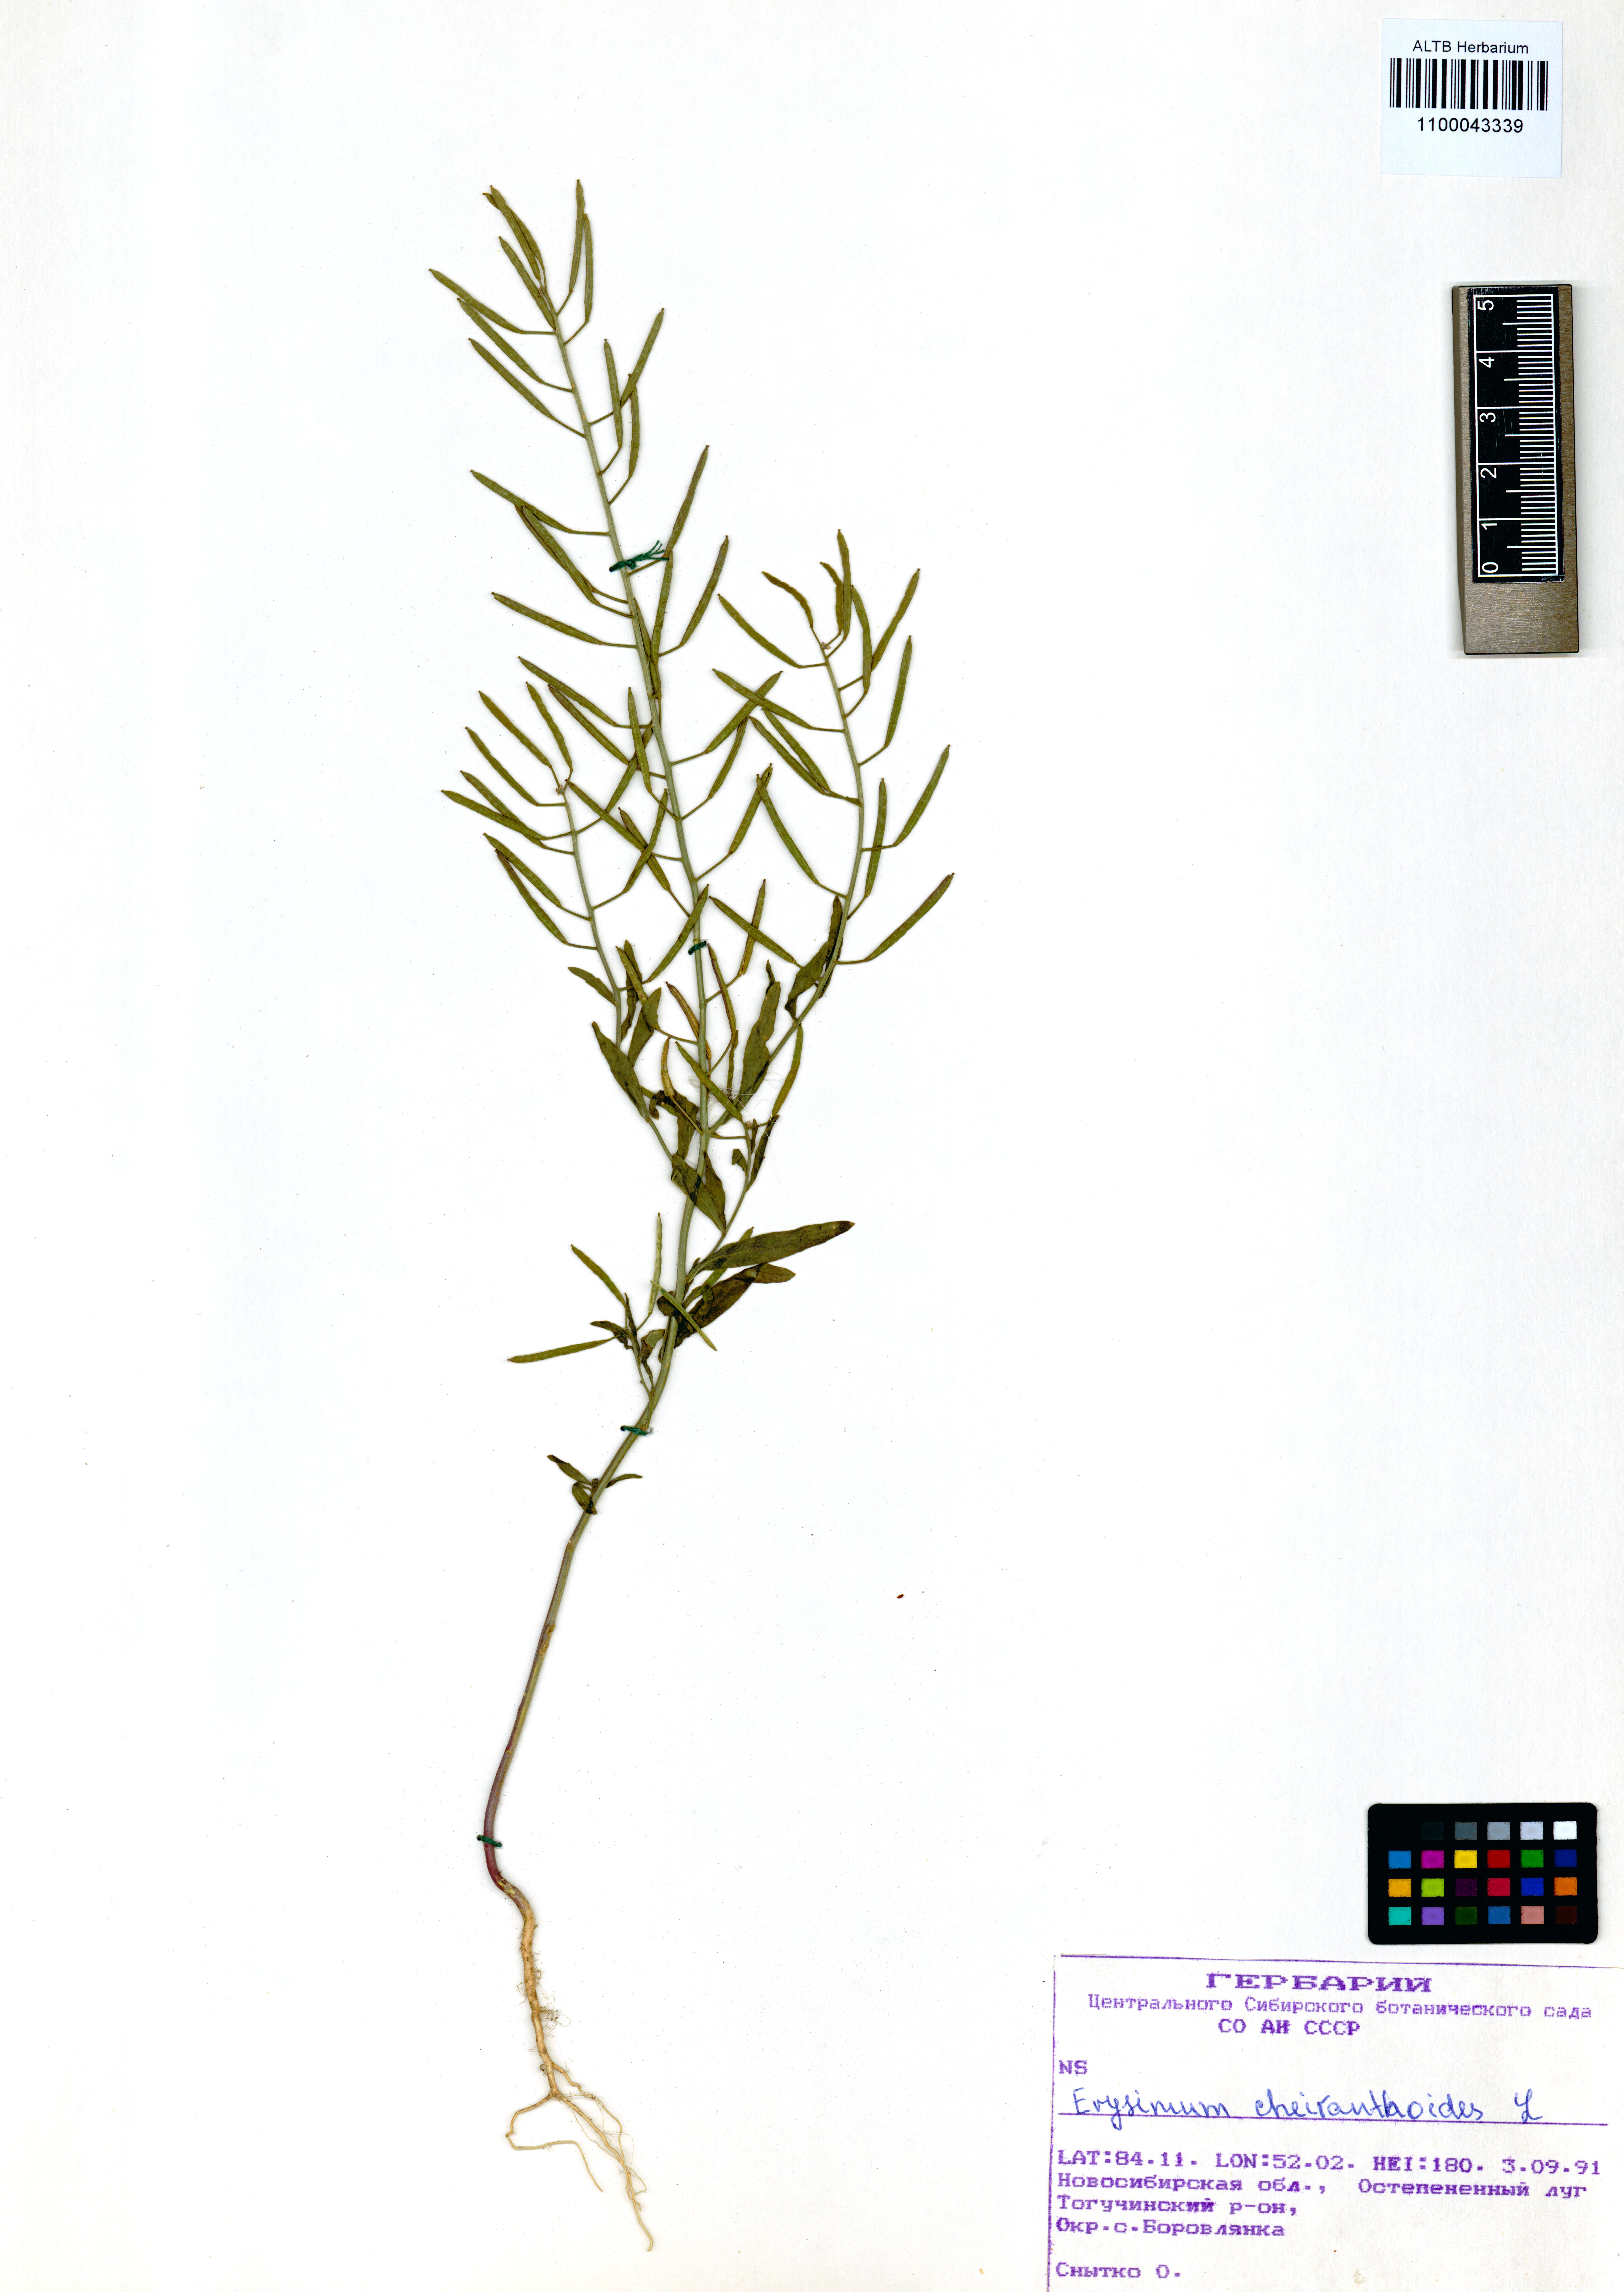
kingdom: Plantae
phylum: Tracheophyta
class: Magnoliopsida
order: Brassicales
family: Brassicaceae
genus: Erysimum
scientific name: Erysimum cheiranthoides
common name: Treacle mustard
